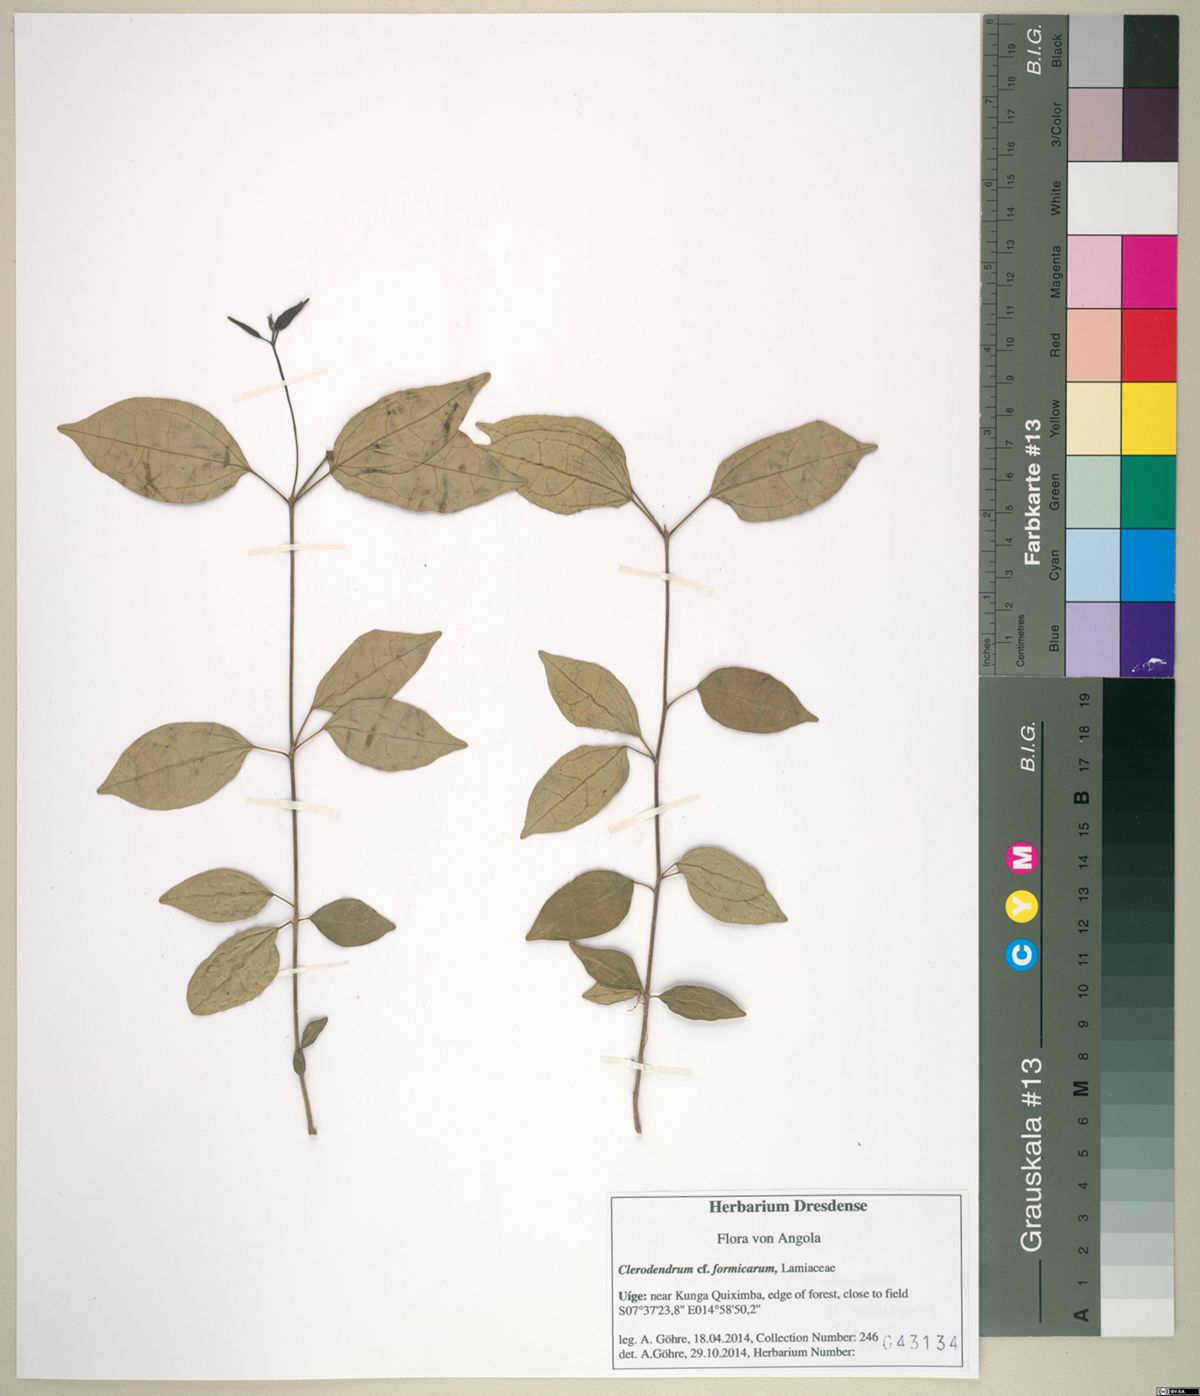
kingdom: Plantae
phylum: Tracheophyta
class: Magnoliopsida
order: Lamiales
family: Lamiaceae
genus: Clerodendrum
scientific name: Clerodendrum formicarum
